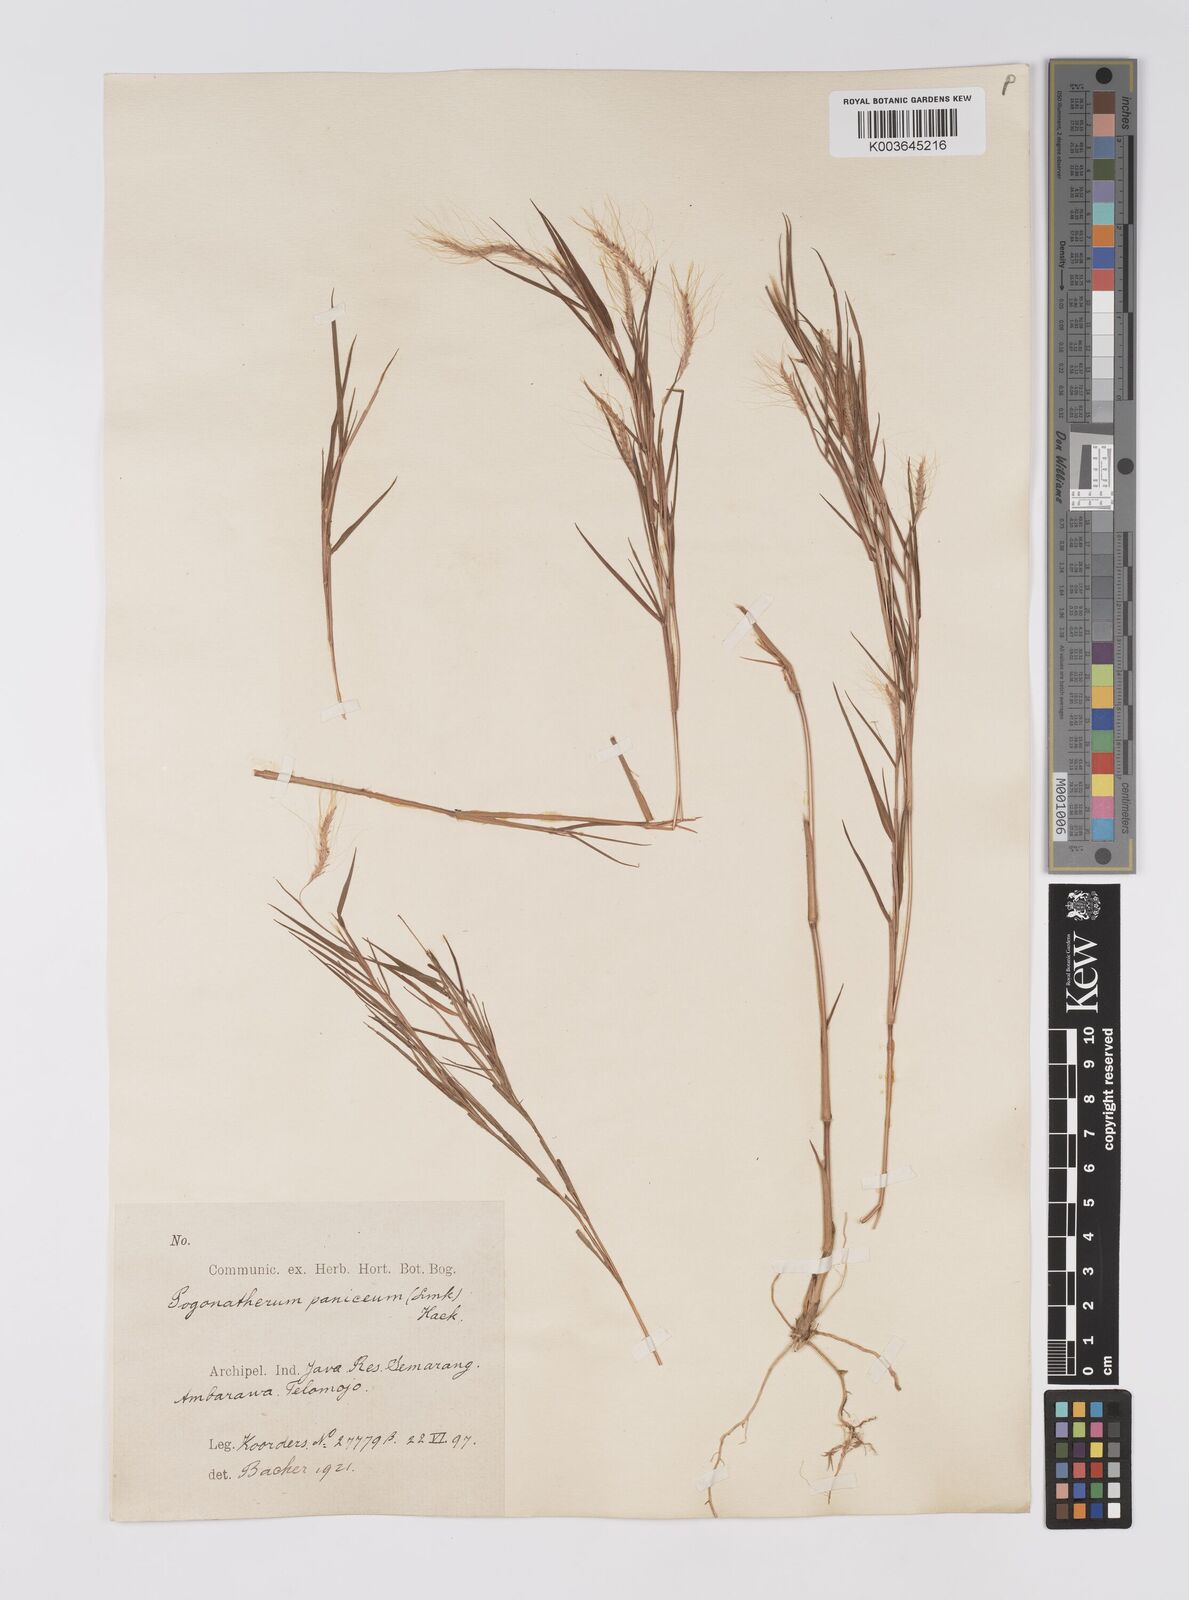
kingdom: Plantae
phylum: Tracheophyta
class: Liliopsida
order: Poales
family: Poaceae
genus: Pogonatherum
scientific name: Pogonatherum paniceum
